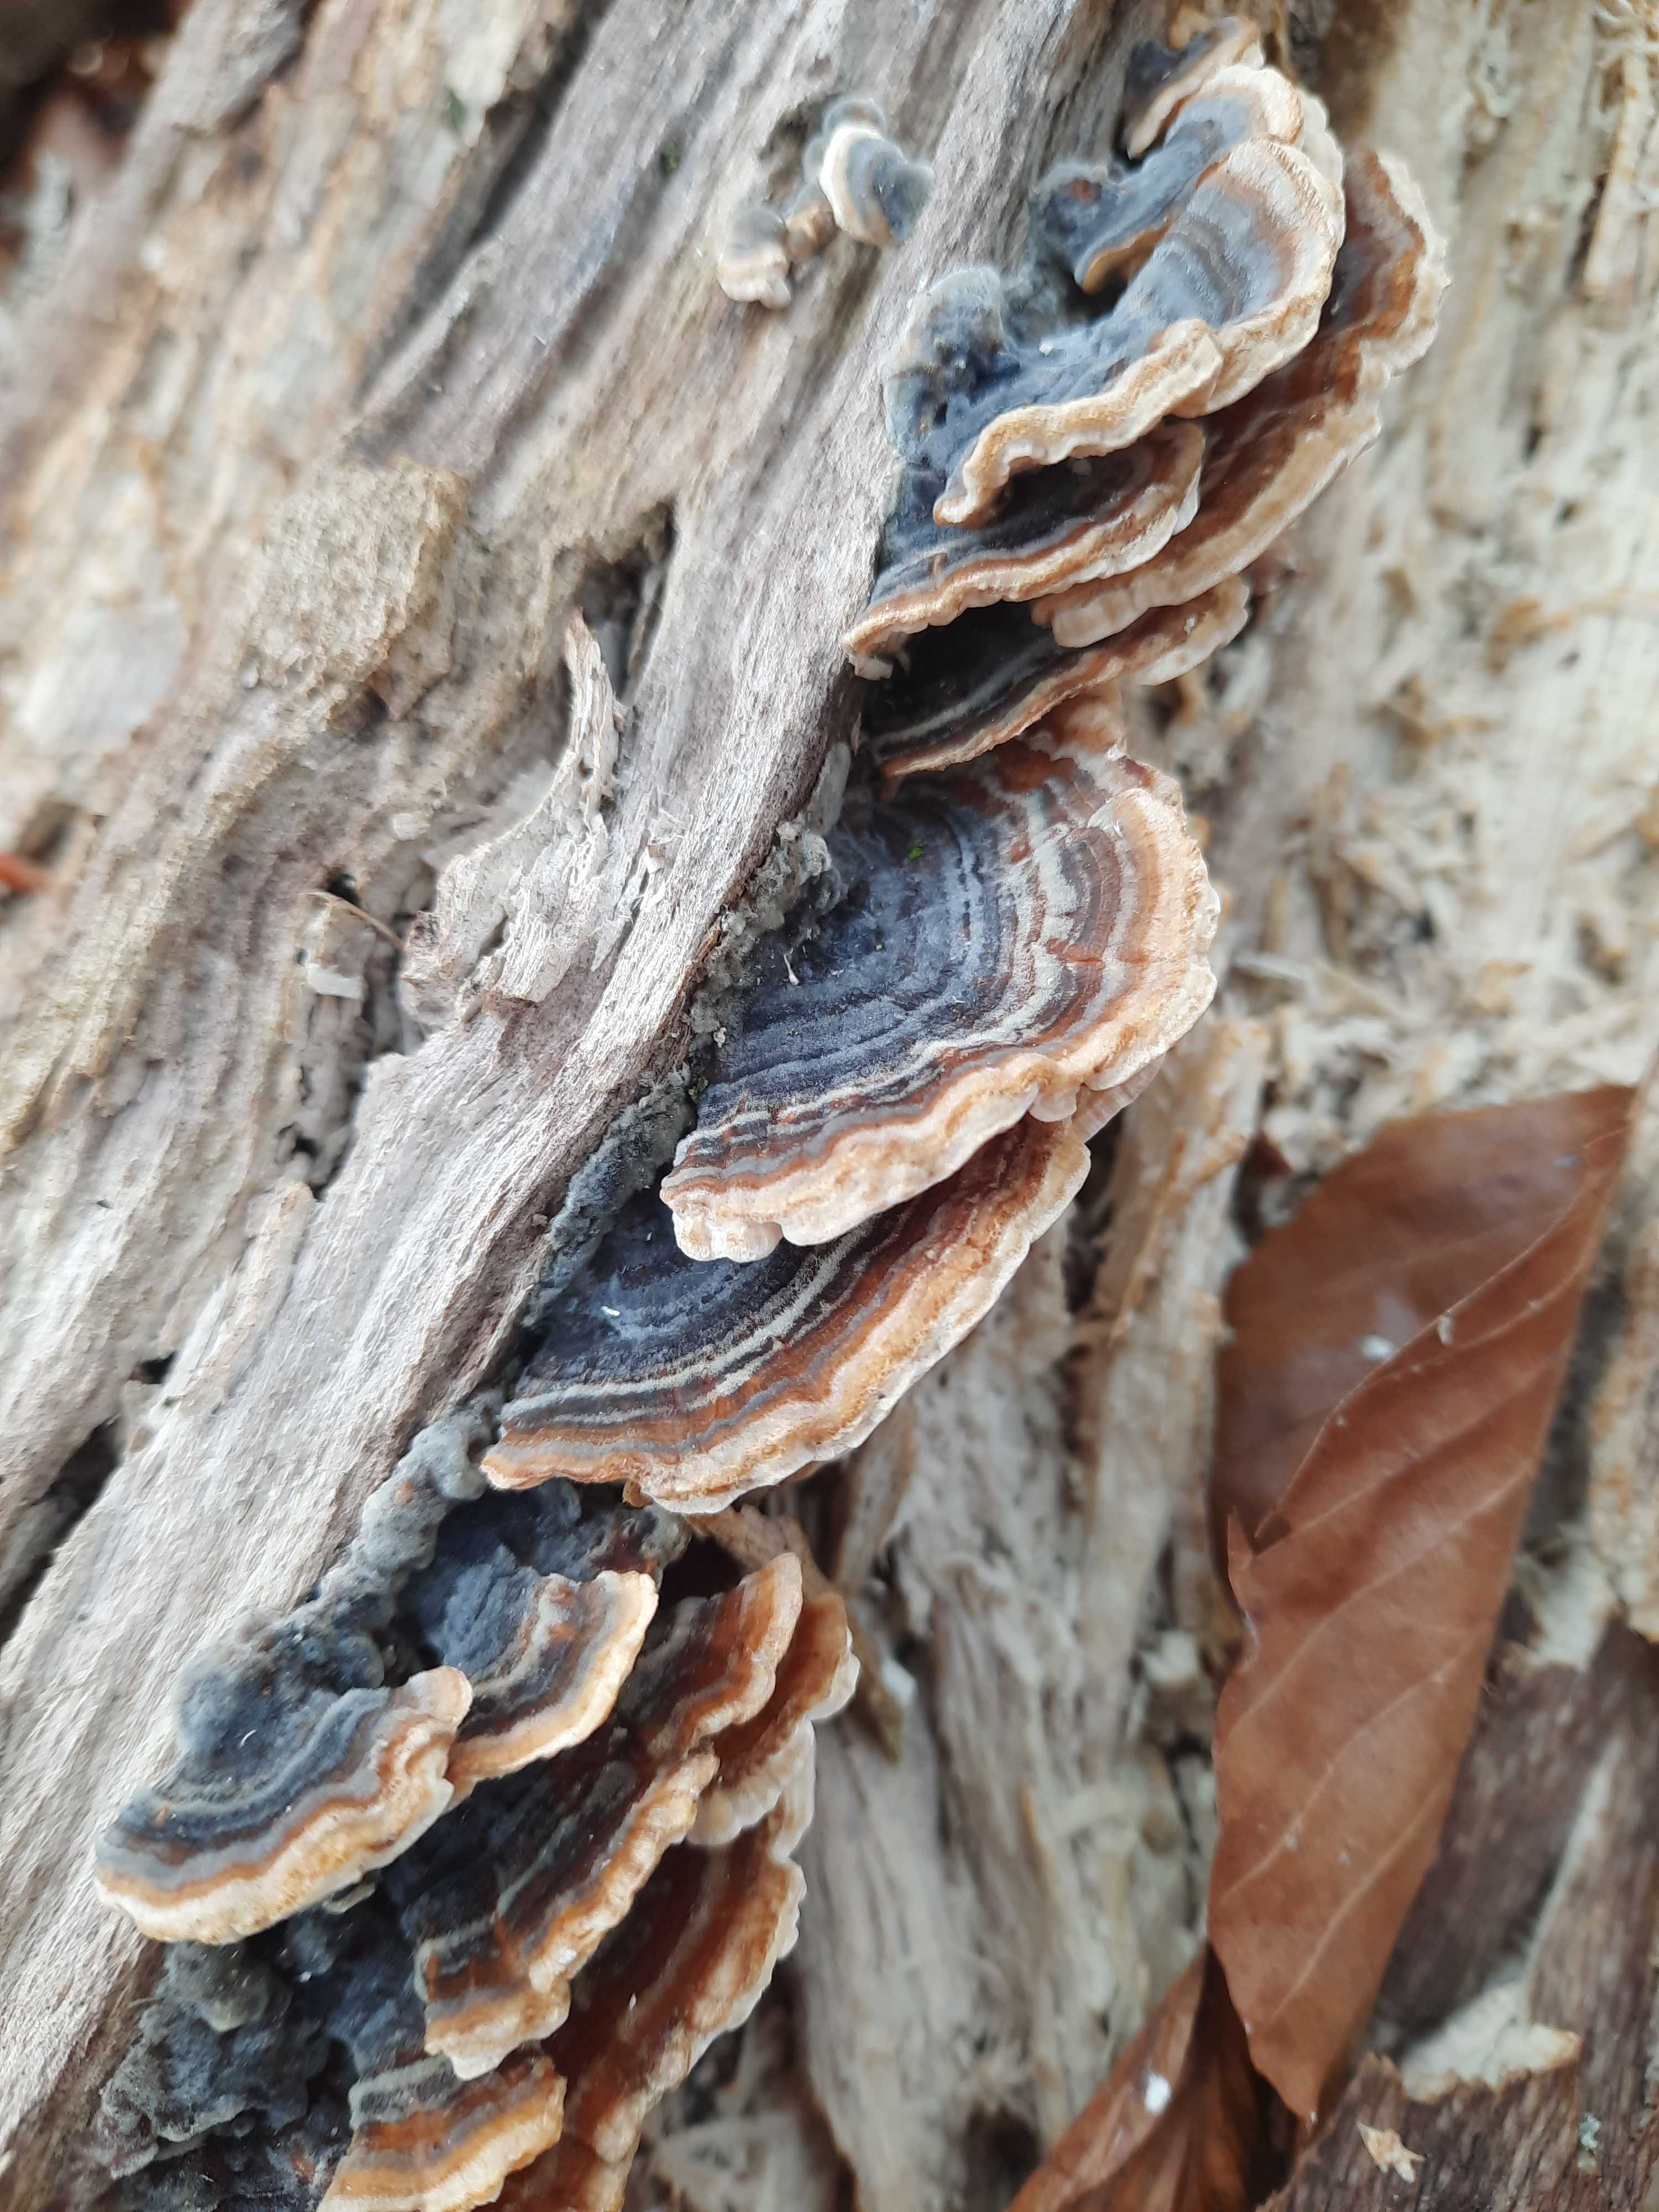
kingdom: Fungi
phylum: Basidiomycota
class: Agaricomycetes
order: Polyporales
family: Polyporaceae
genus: Trametes
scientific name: Trametes versicolor
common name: broget læderporesvamp
